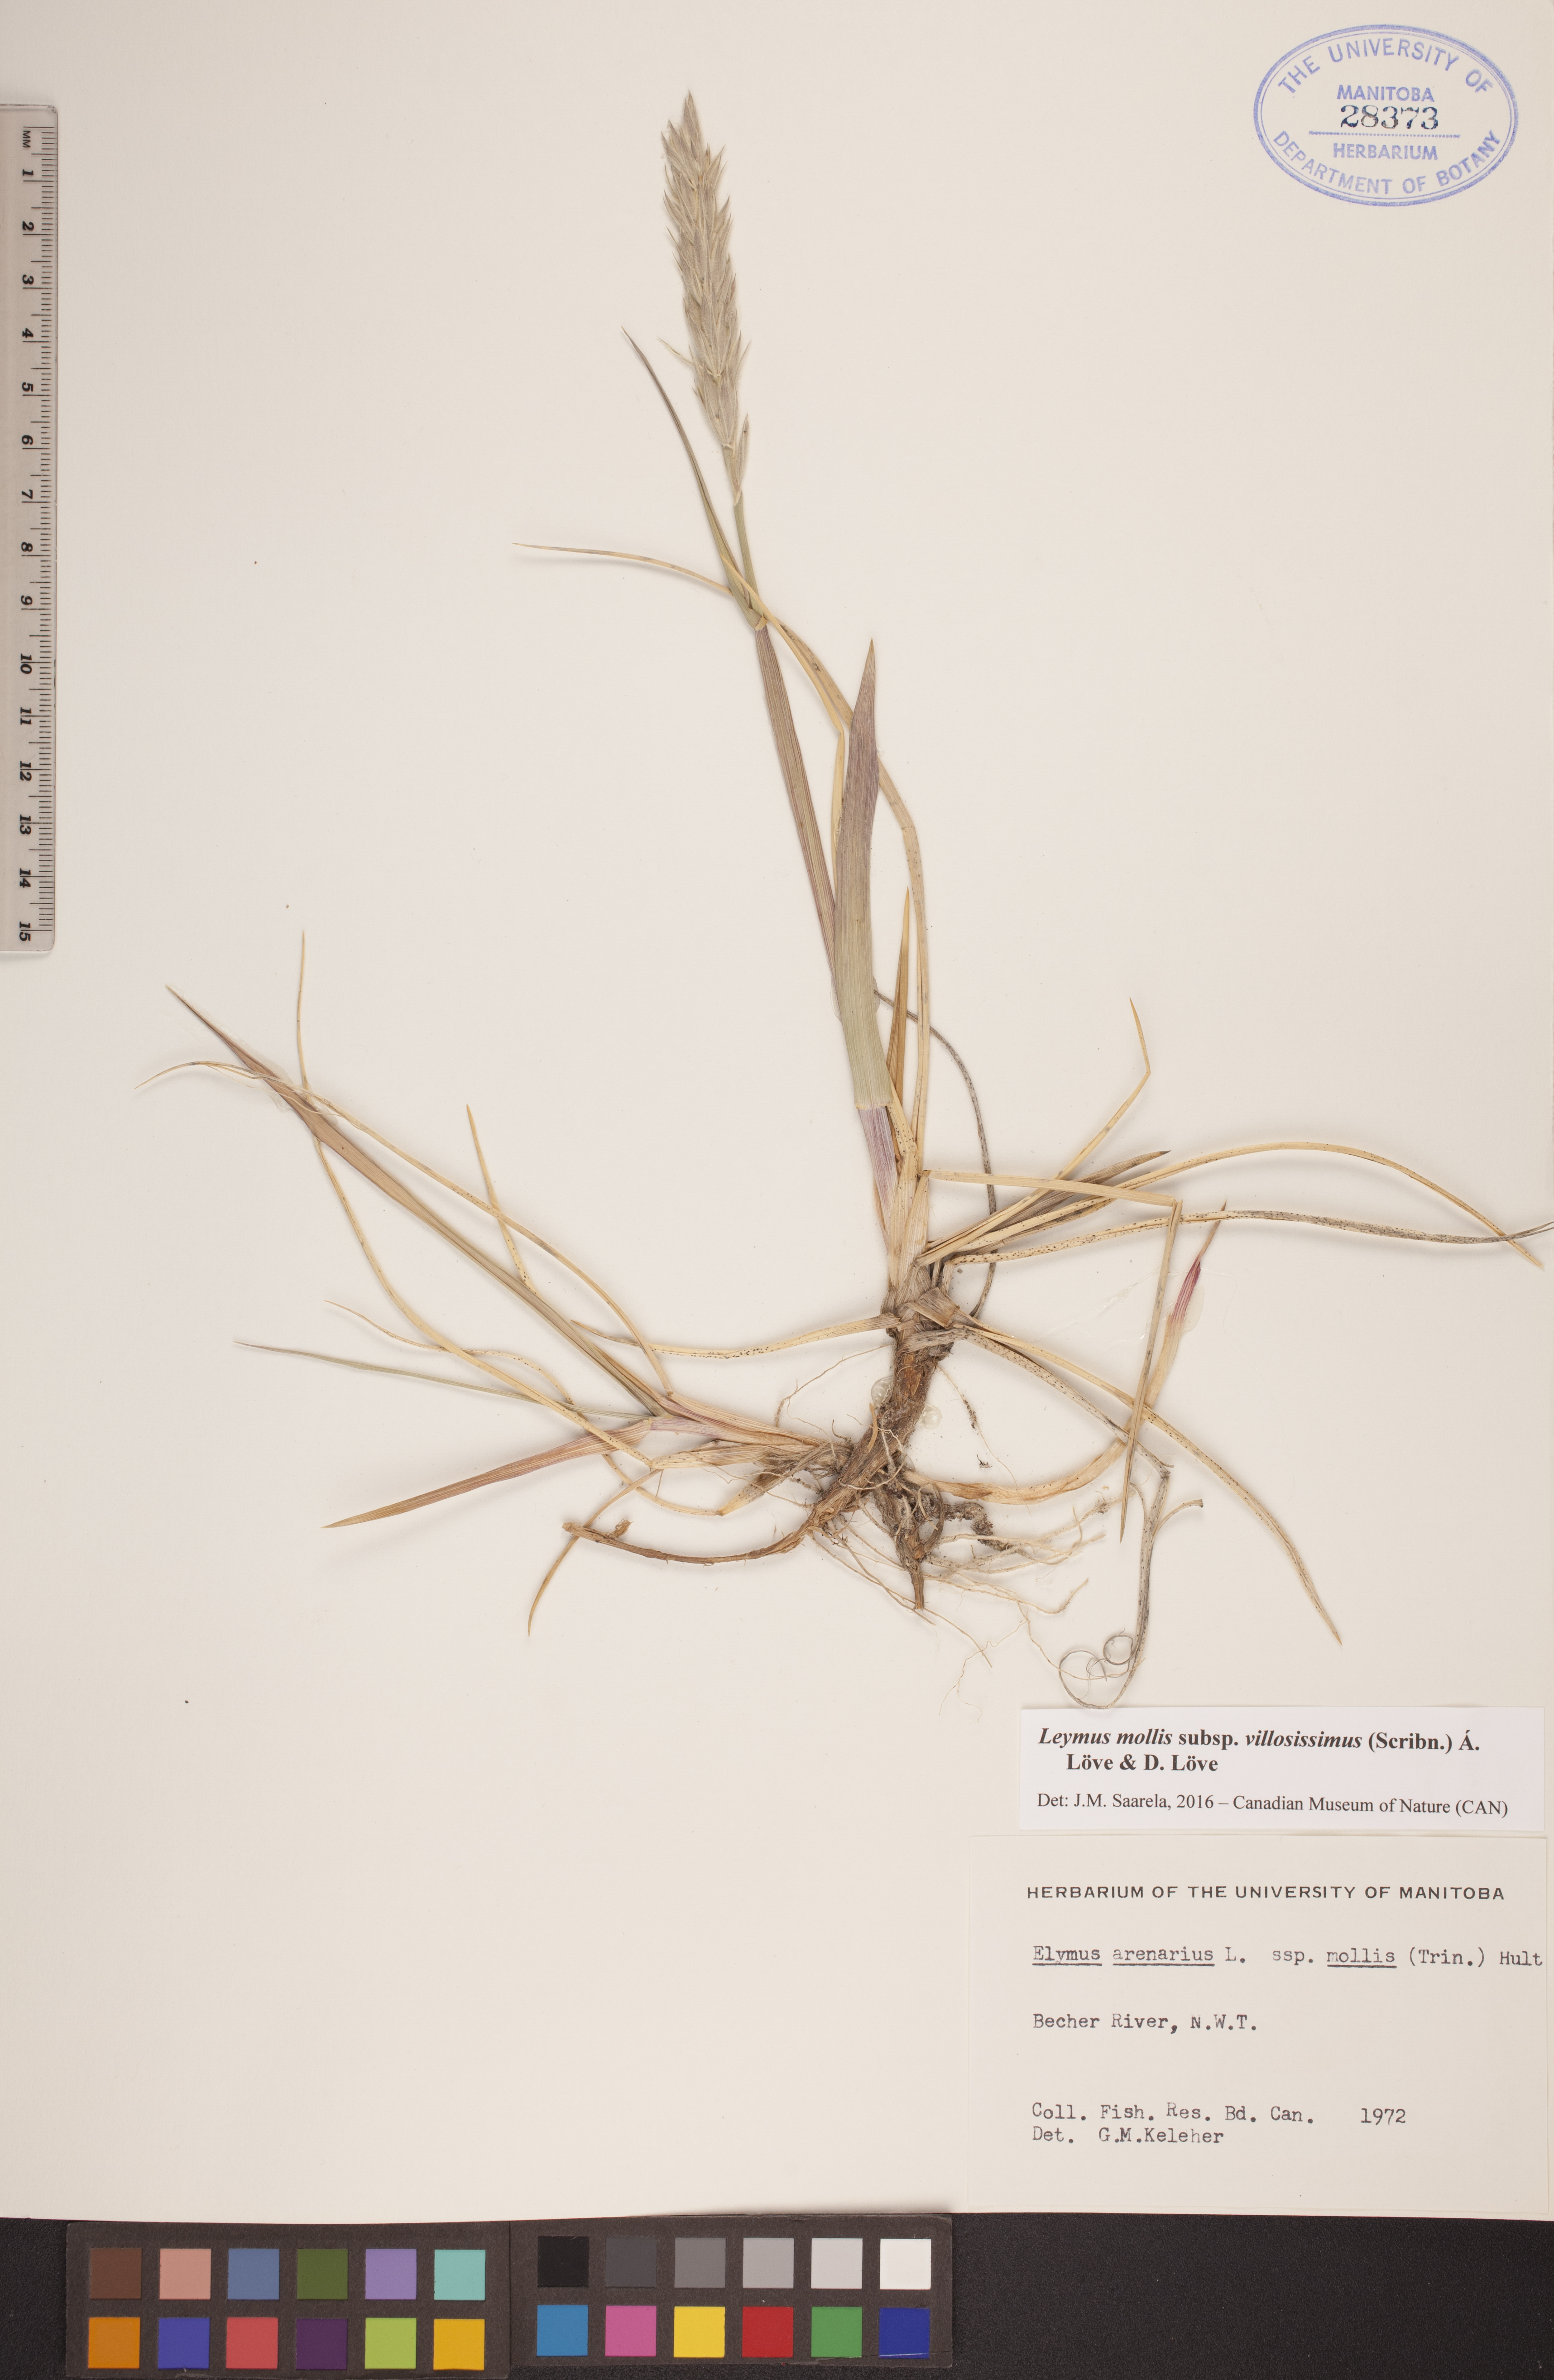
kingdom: Plantae
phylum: Tracheophyta
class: Liliopsida
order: Poales
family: Poaceae
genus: Leymus
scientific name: Leymus villosissimus
